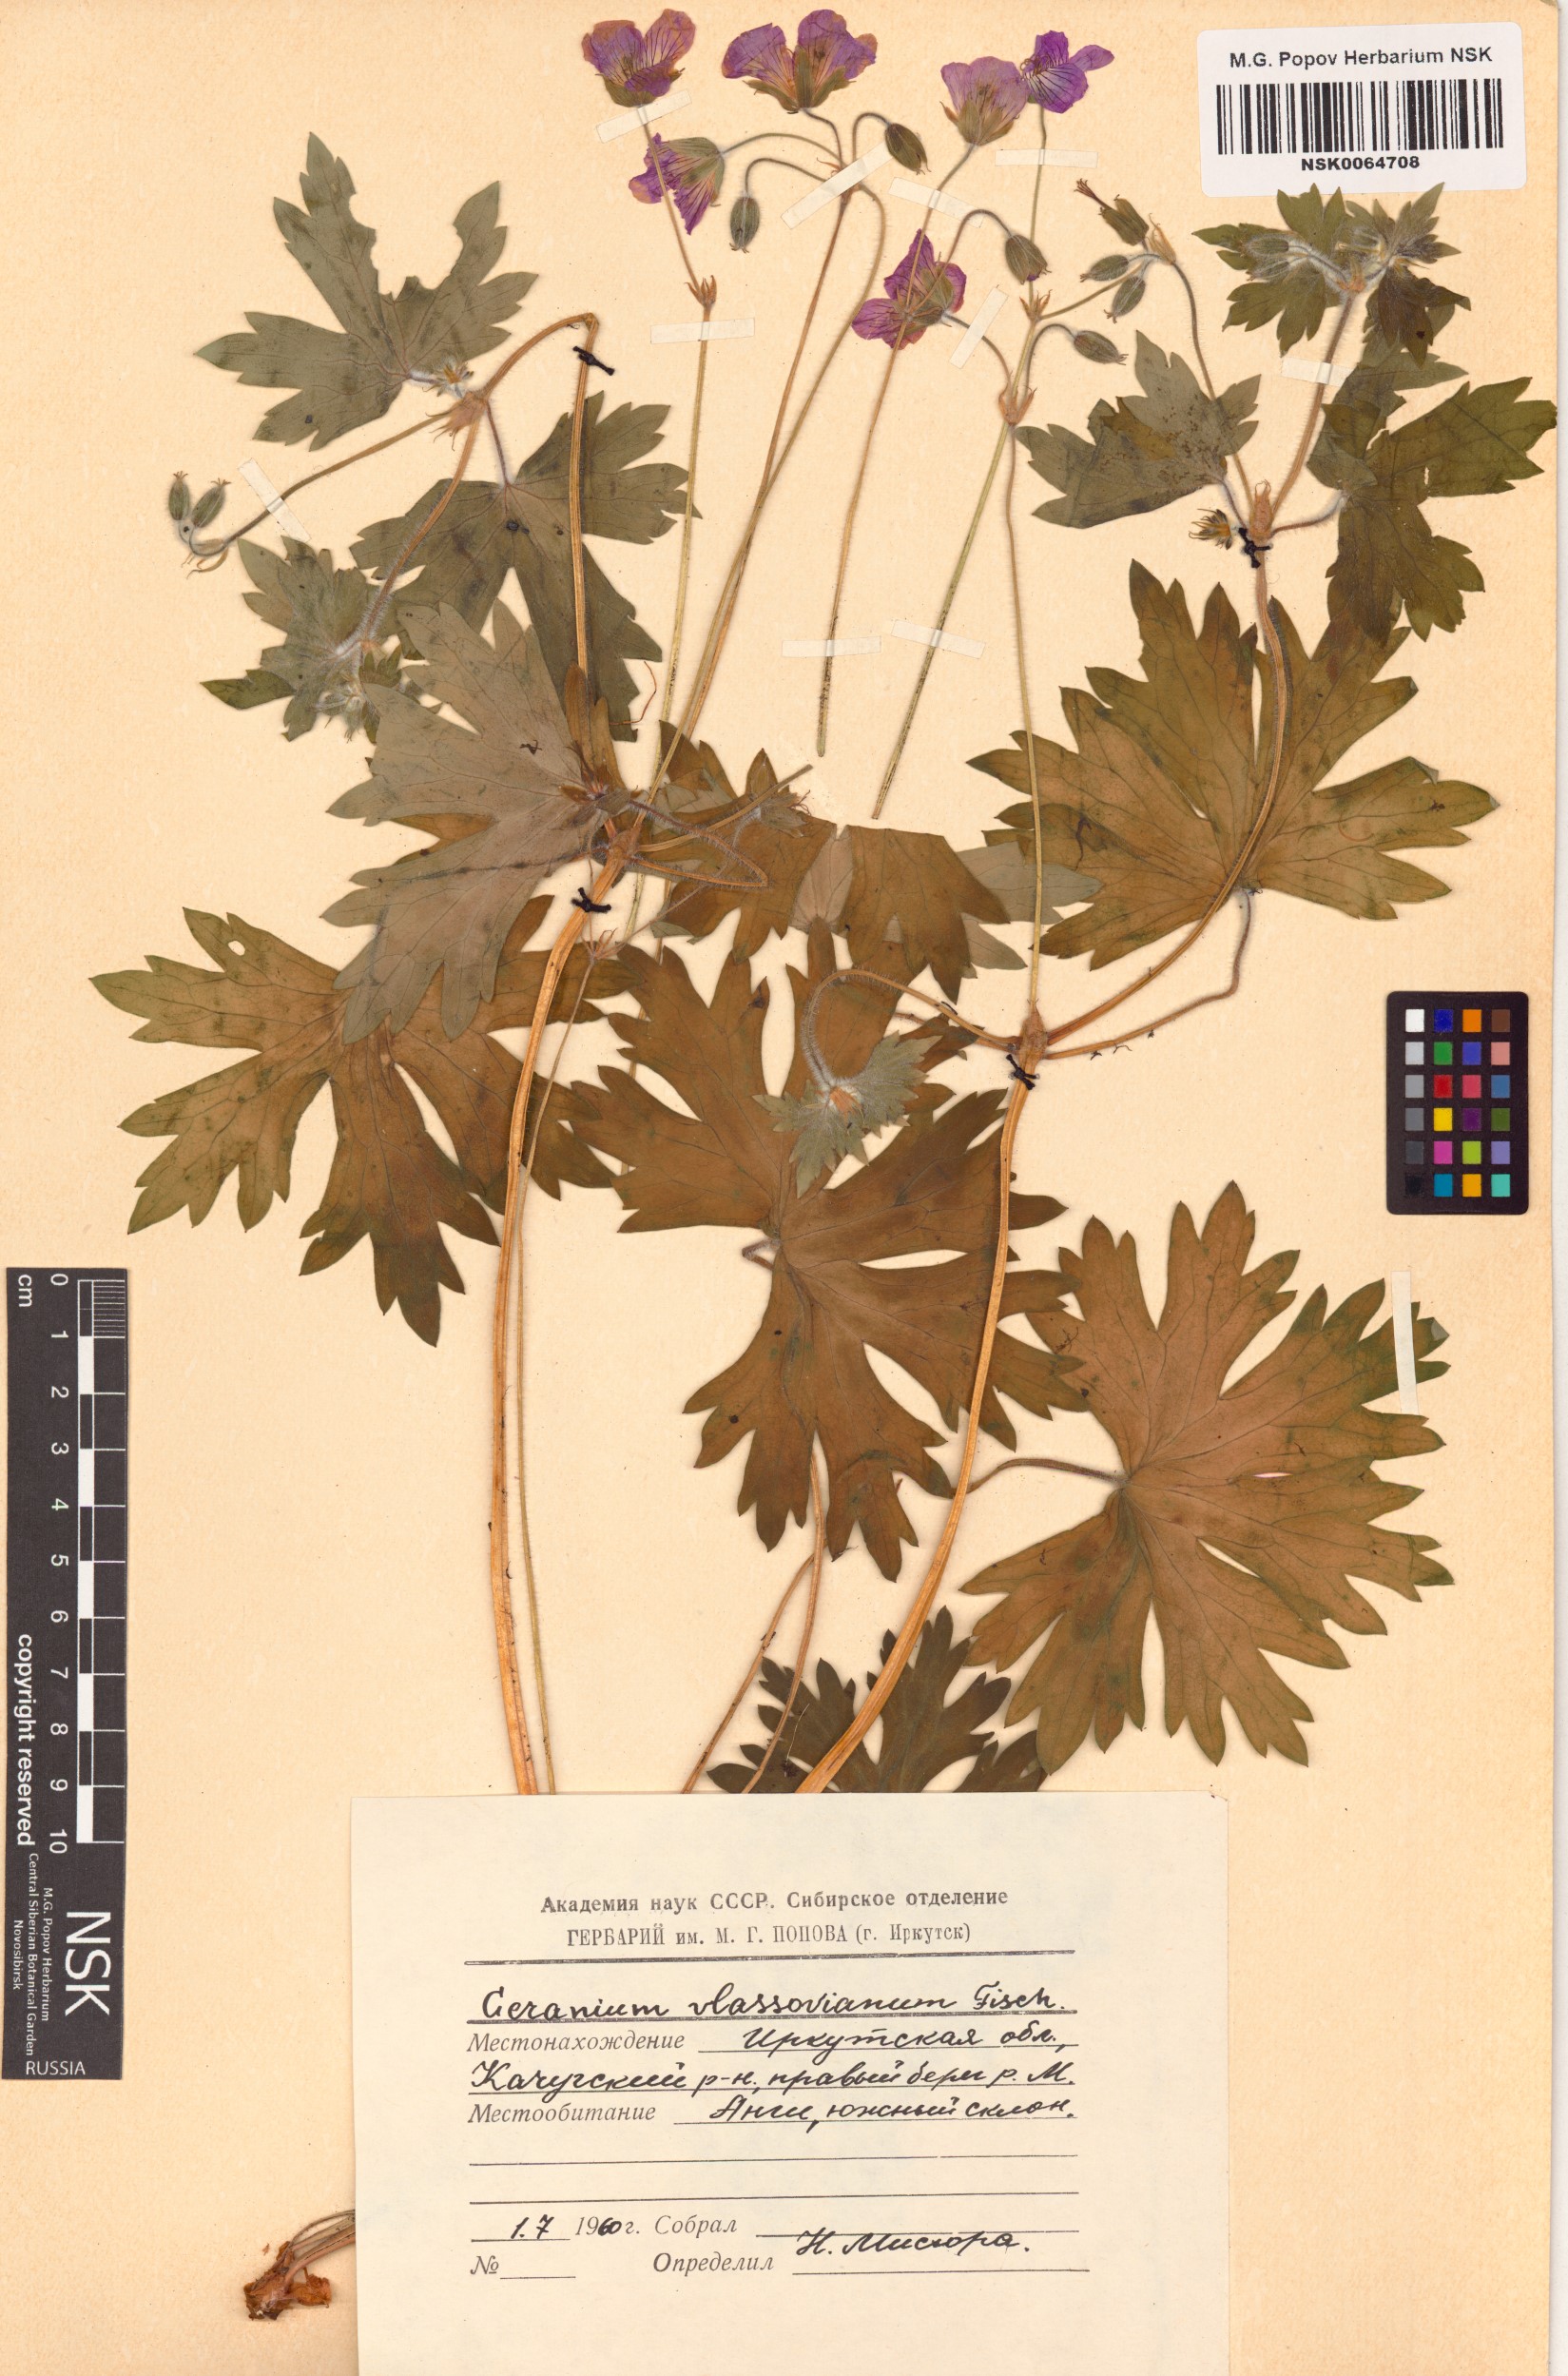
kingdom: Plantae
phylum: Tracheophyta
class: Magnoliopsida
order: Geraniales
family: Geraniaceae
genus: Geranium
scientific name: Geranium wlassovianum
